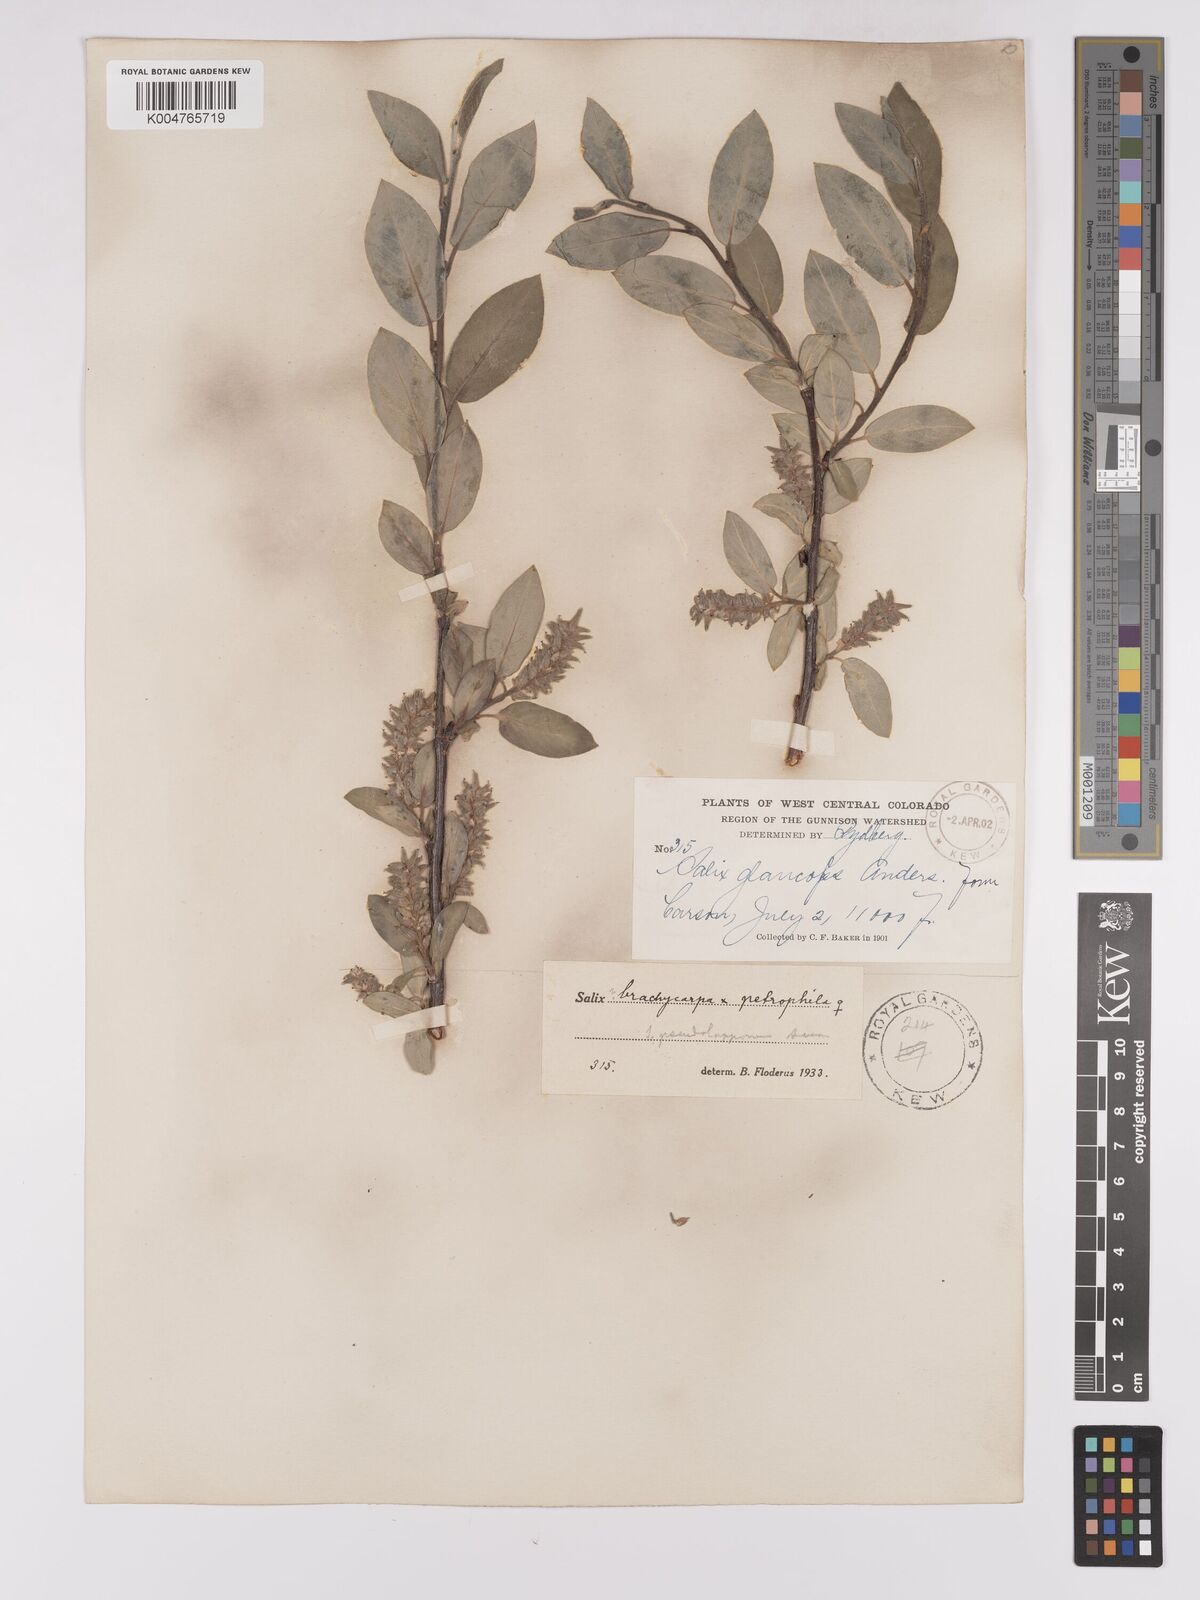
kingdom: Plantae
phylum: Tracheophyta
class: Magnoliopsida
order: Malpighiales
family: Salicaceae
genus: Salix
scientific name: Salix brachycarpa
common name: Barren-ground willow
